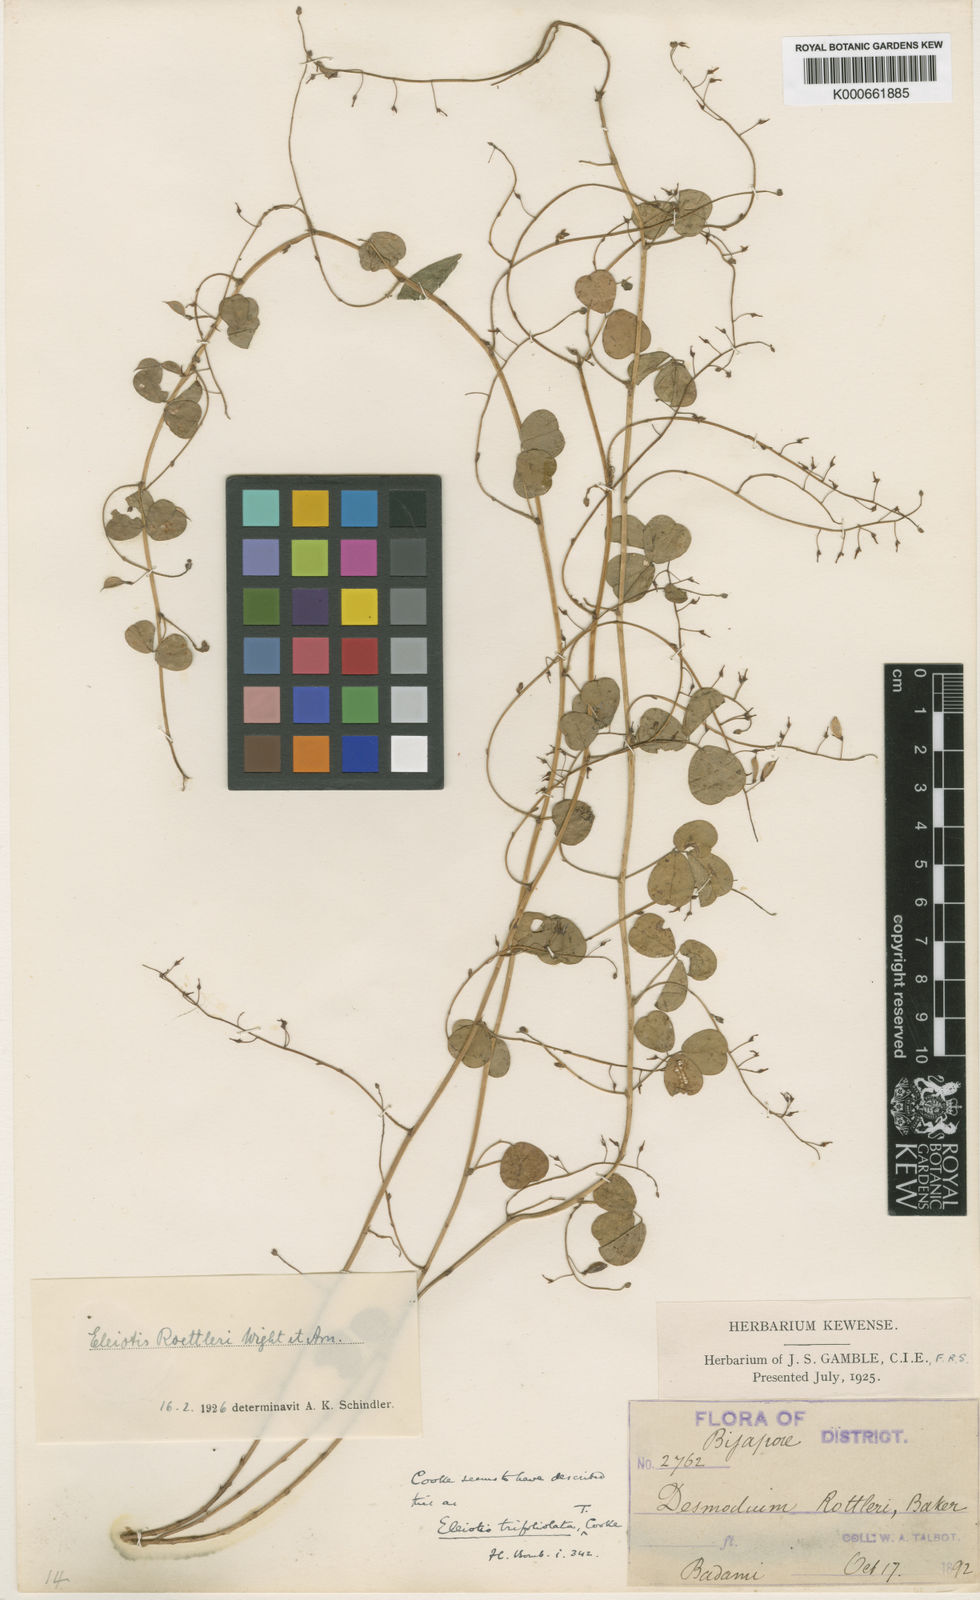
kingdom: Plantae
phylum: Tracheophyta
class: Magnoliopsida
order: Fabales
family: Fabaceae
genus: Eleiotis
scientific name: Eleiotis rottleri
